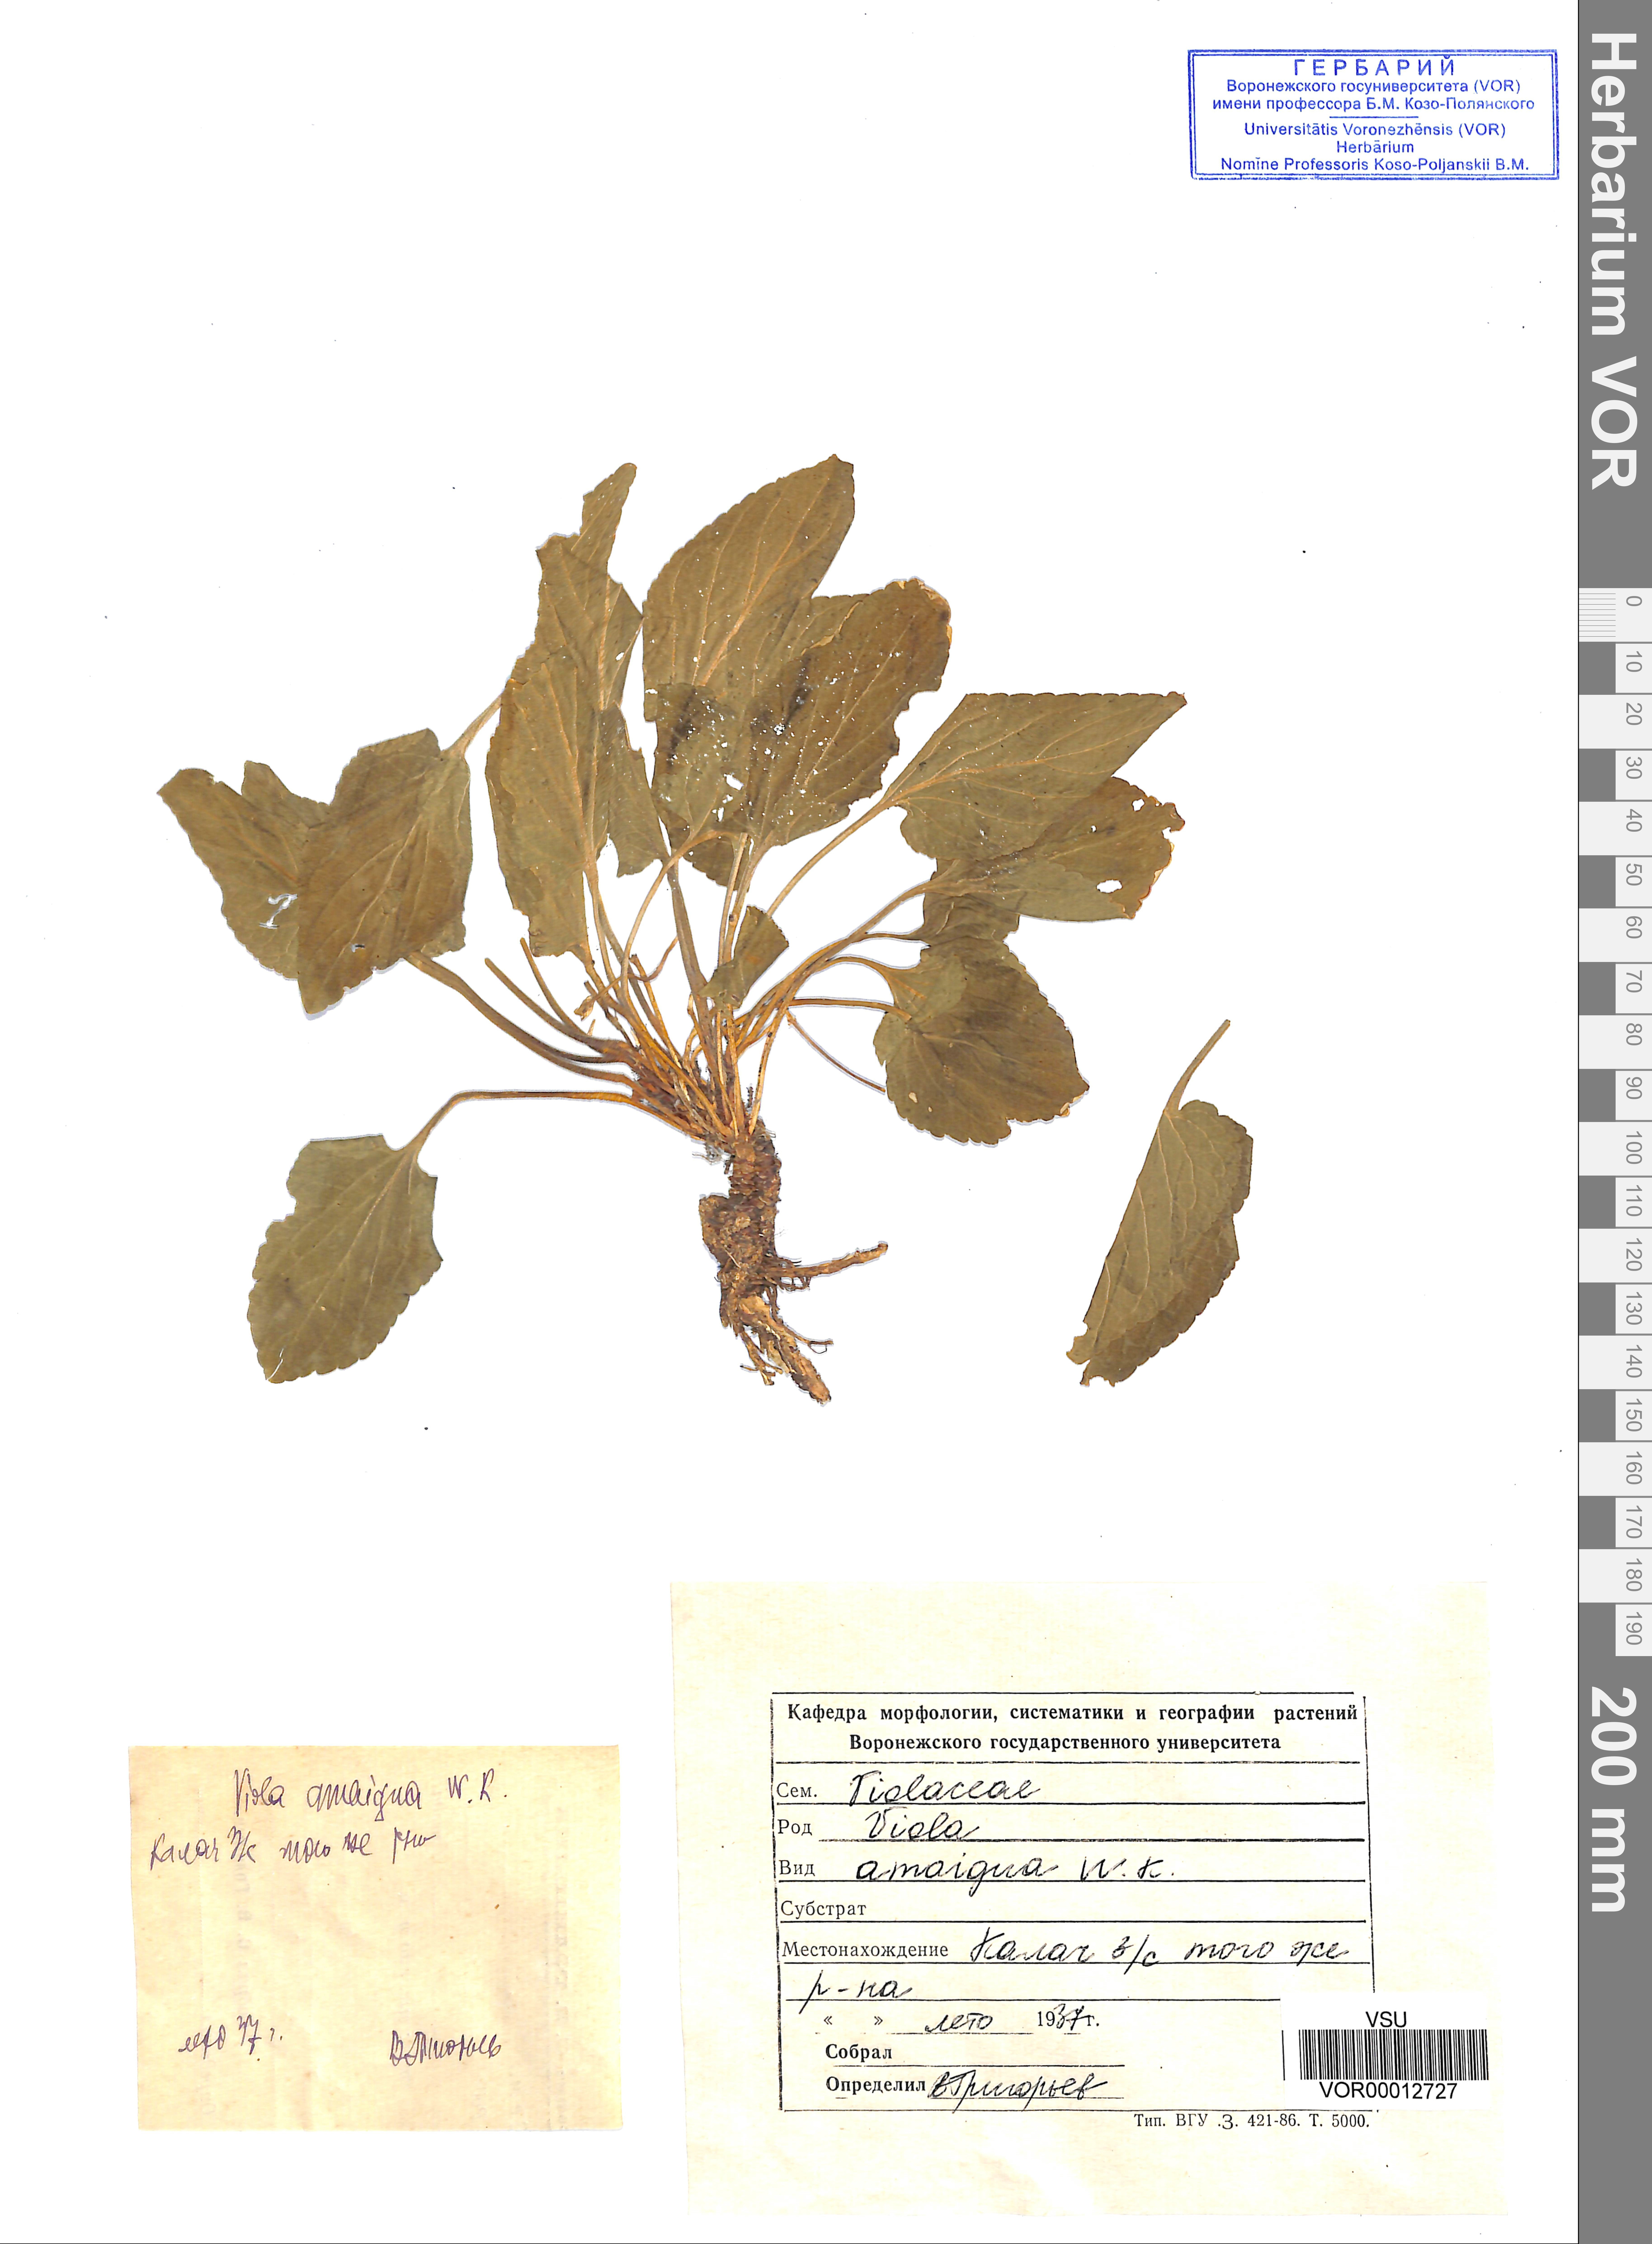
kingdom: Plantae
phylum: Tracheophyta
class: Magnoliopsida
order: Malpighiales
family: Violaceae
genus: Viola
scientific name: Viola ambigua
